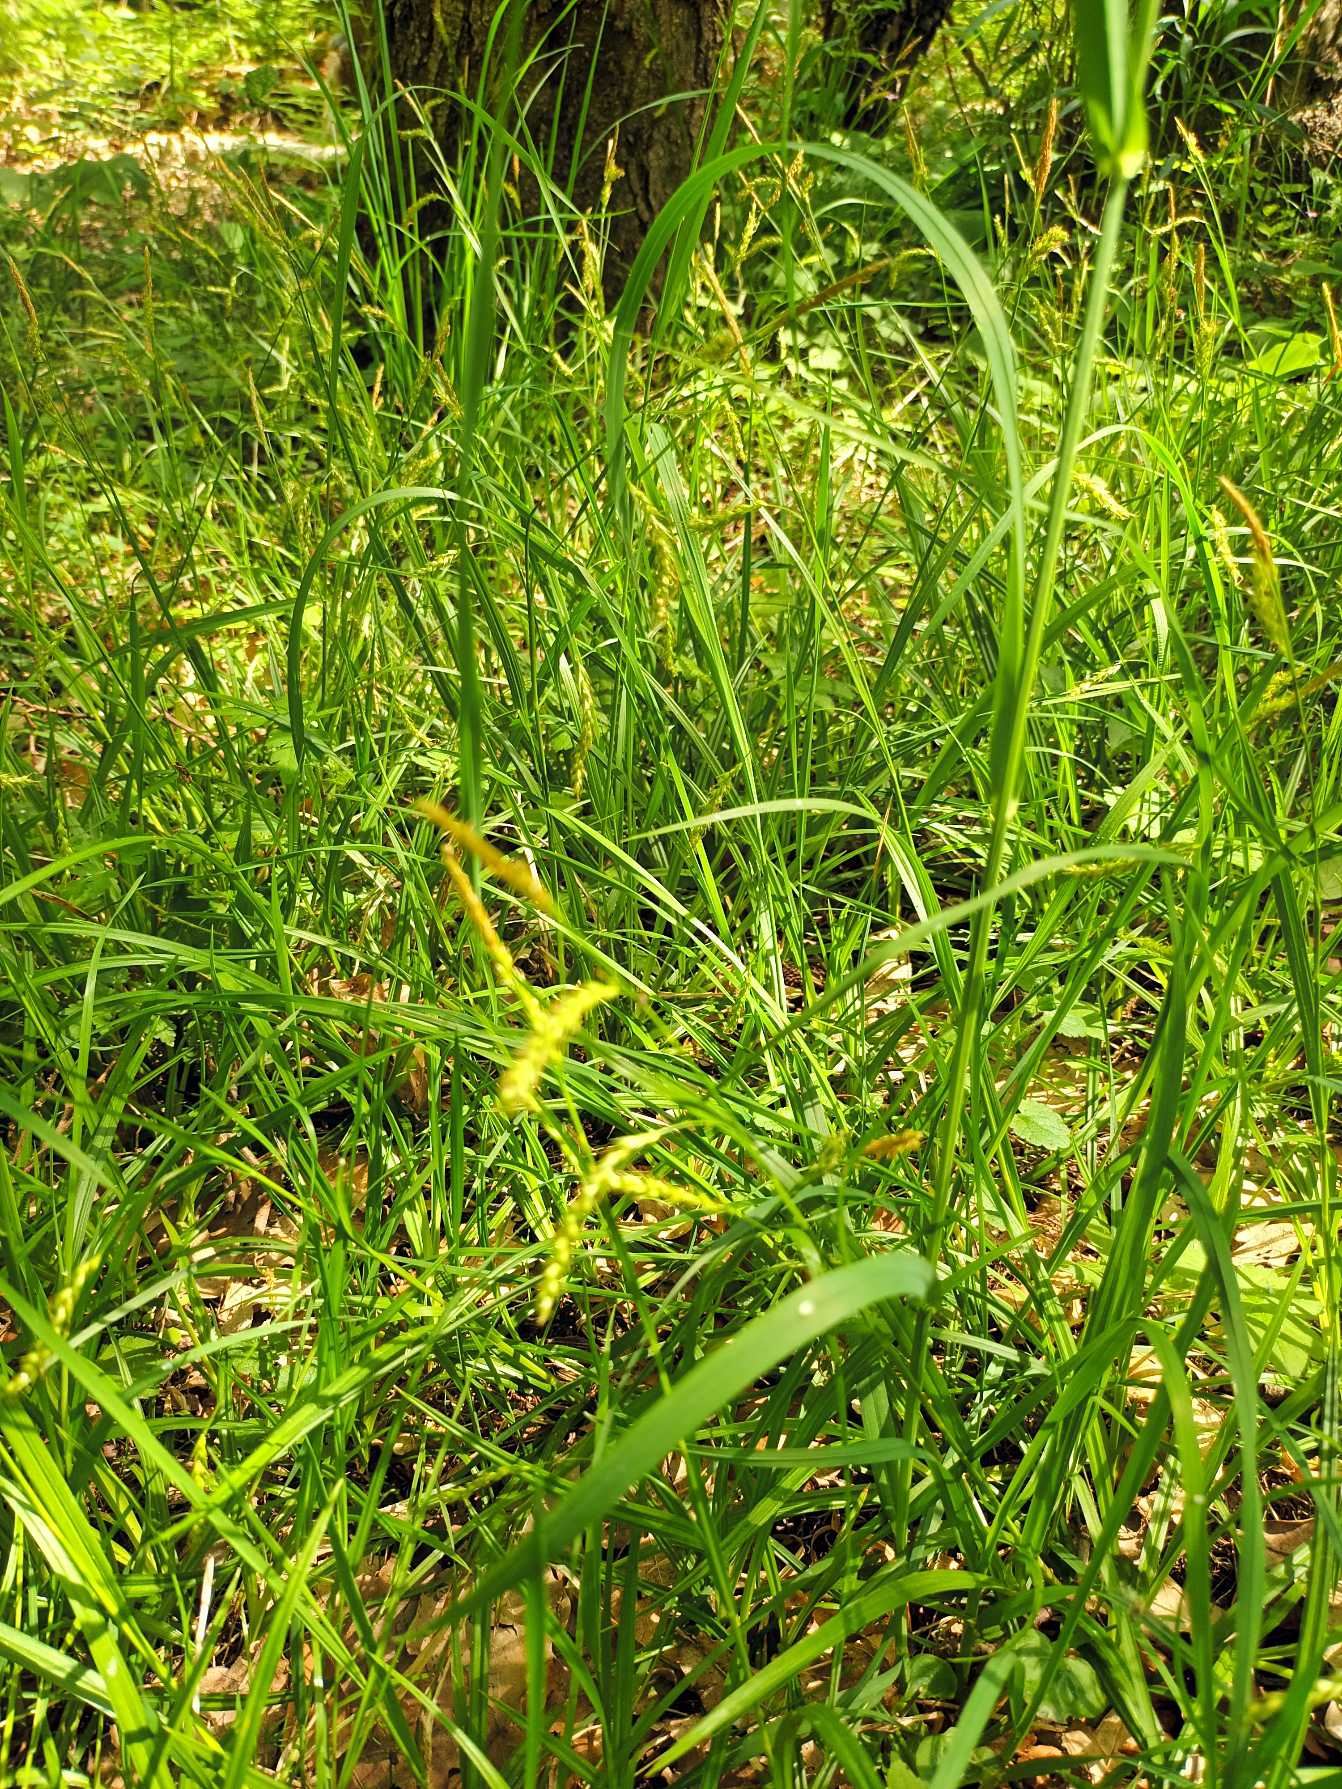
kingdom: Plantae
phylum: Tracheophyta
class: Liliopsida
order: Poales
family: Cyperaceae
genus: Carex
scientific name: Carex sylvatica
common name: Skov-star
